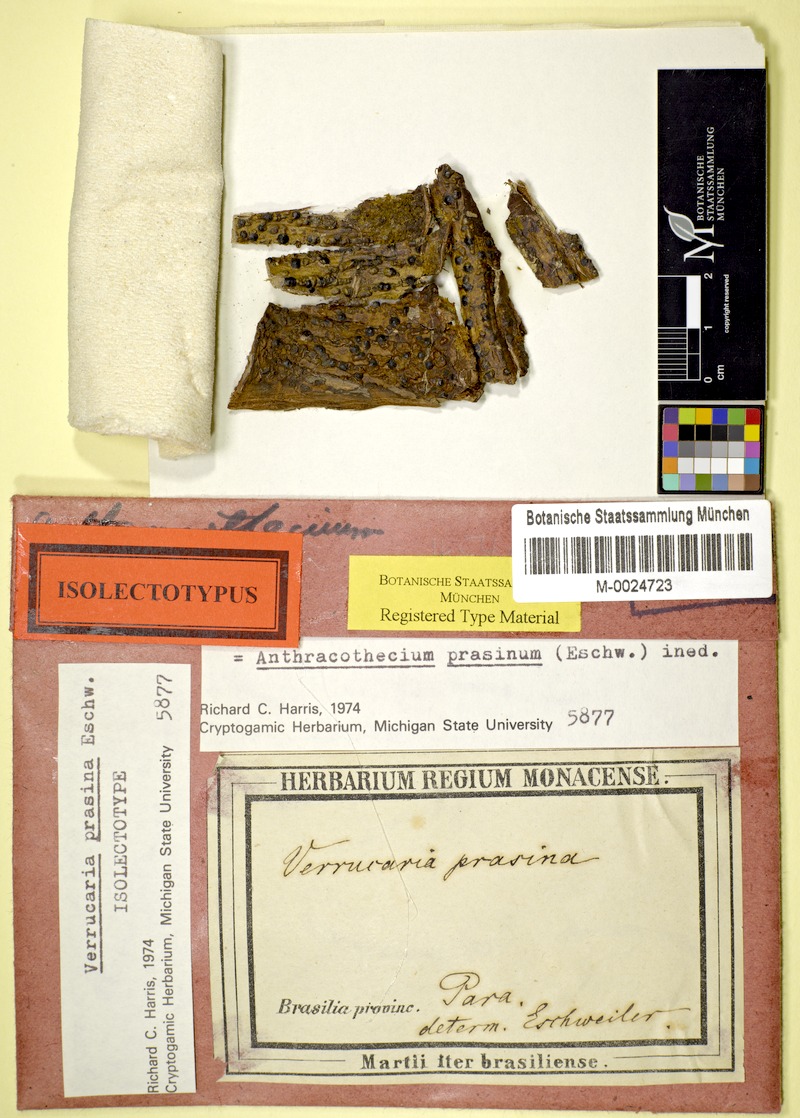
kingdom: Fungi
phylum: Ascomycota
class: Eurotiomycetes
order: Pyrenulales
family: Pyrenulaceae
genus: Anthracothecium
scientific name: Anthracothecium prasinum
